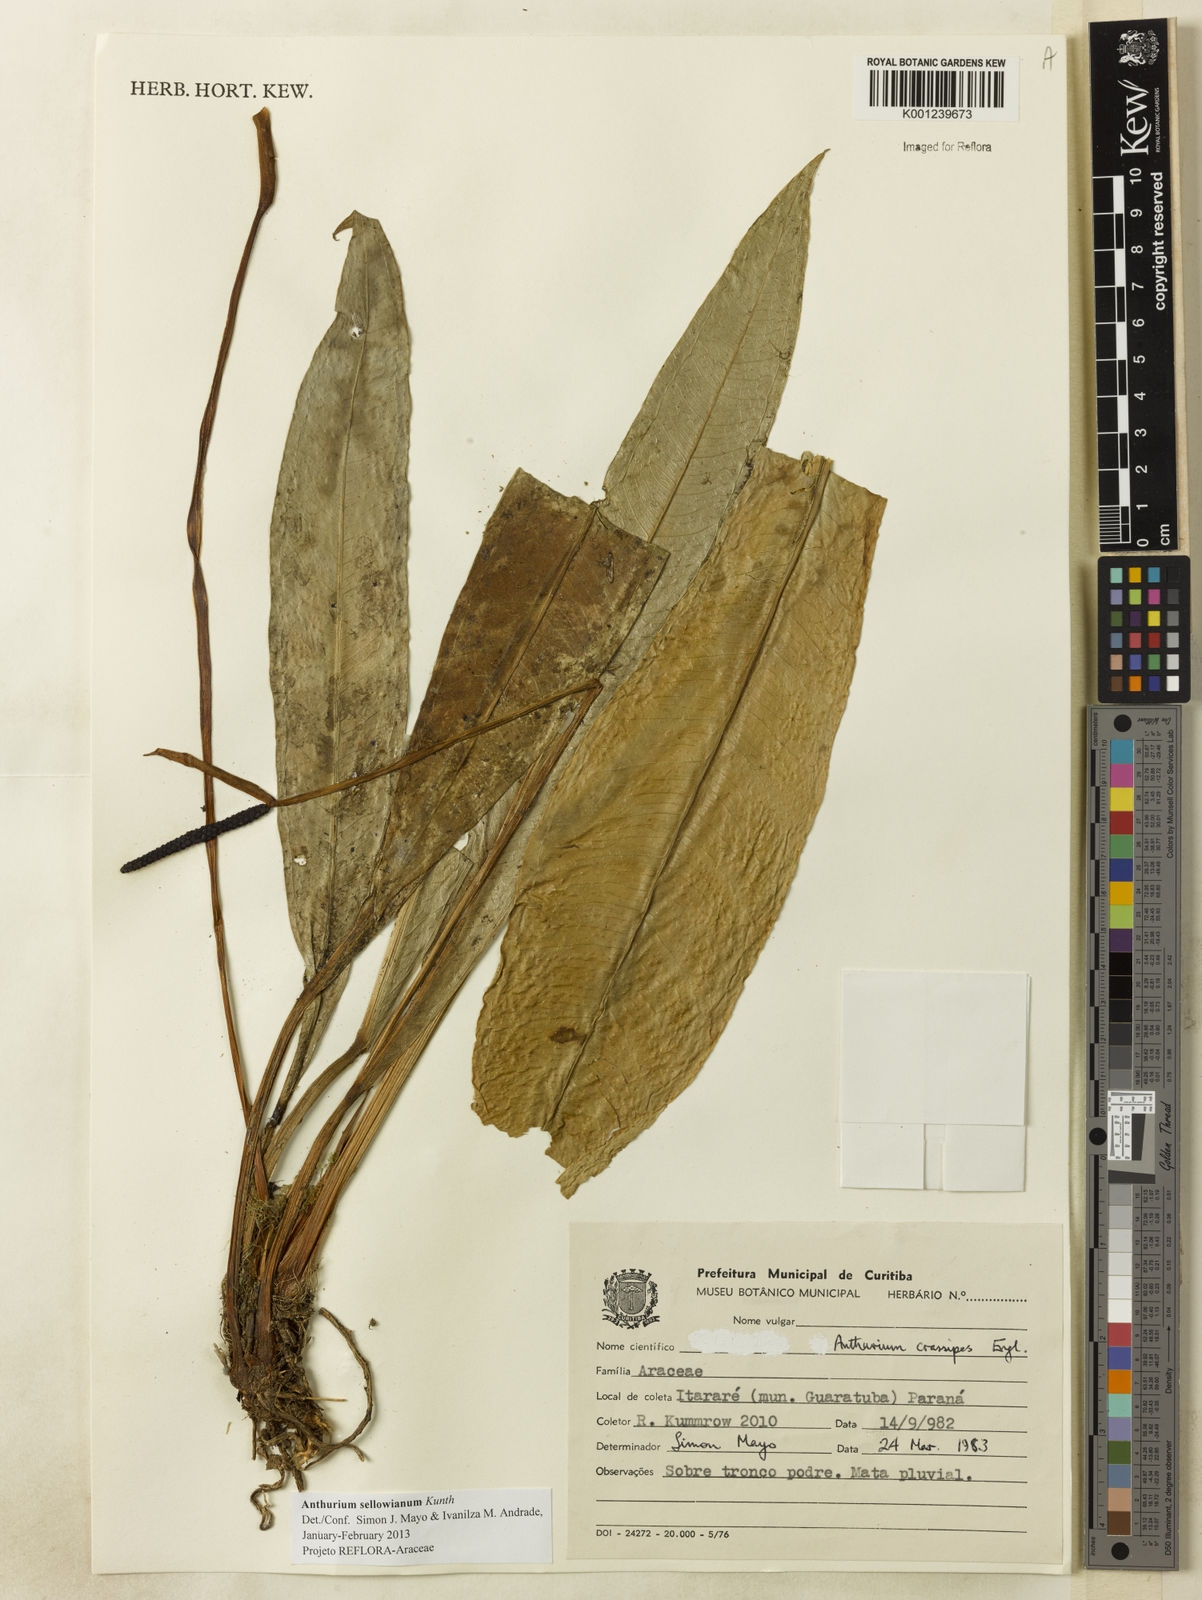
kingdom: Plantae
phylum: Tracheophyta
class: Liliopsida
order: Alismatales
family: Araceae
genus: Anthurium
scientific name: Anthurium sellowianum
